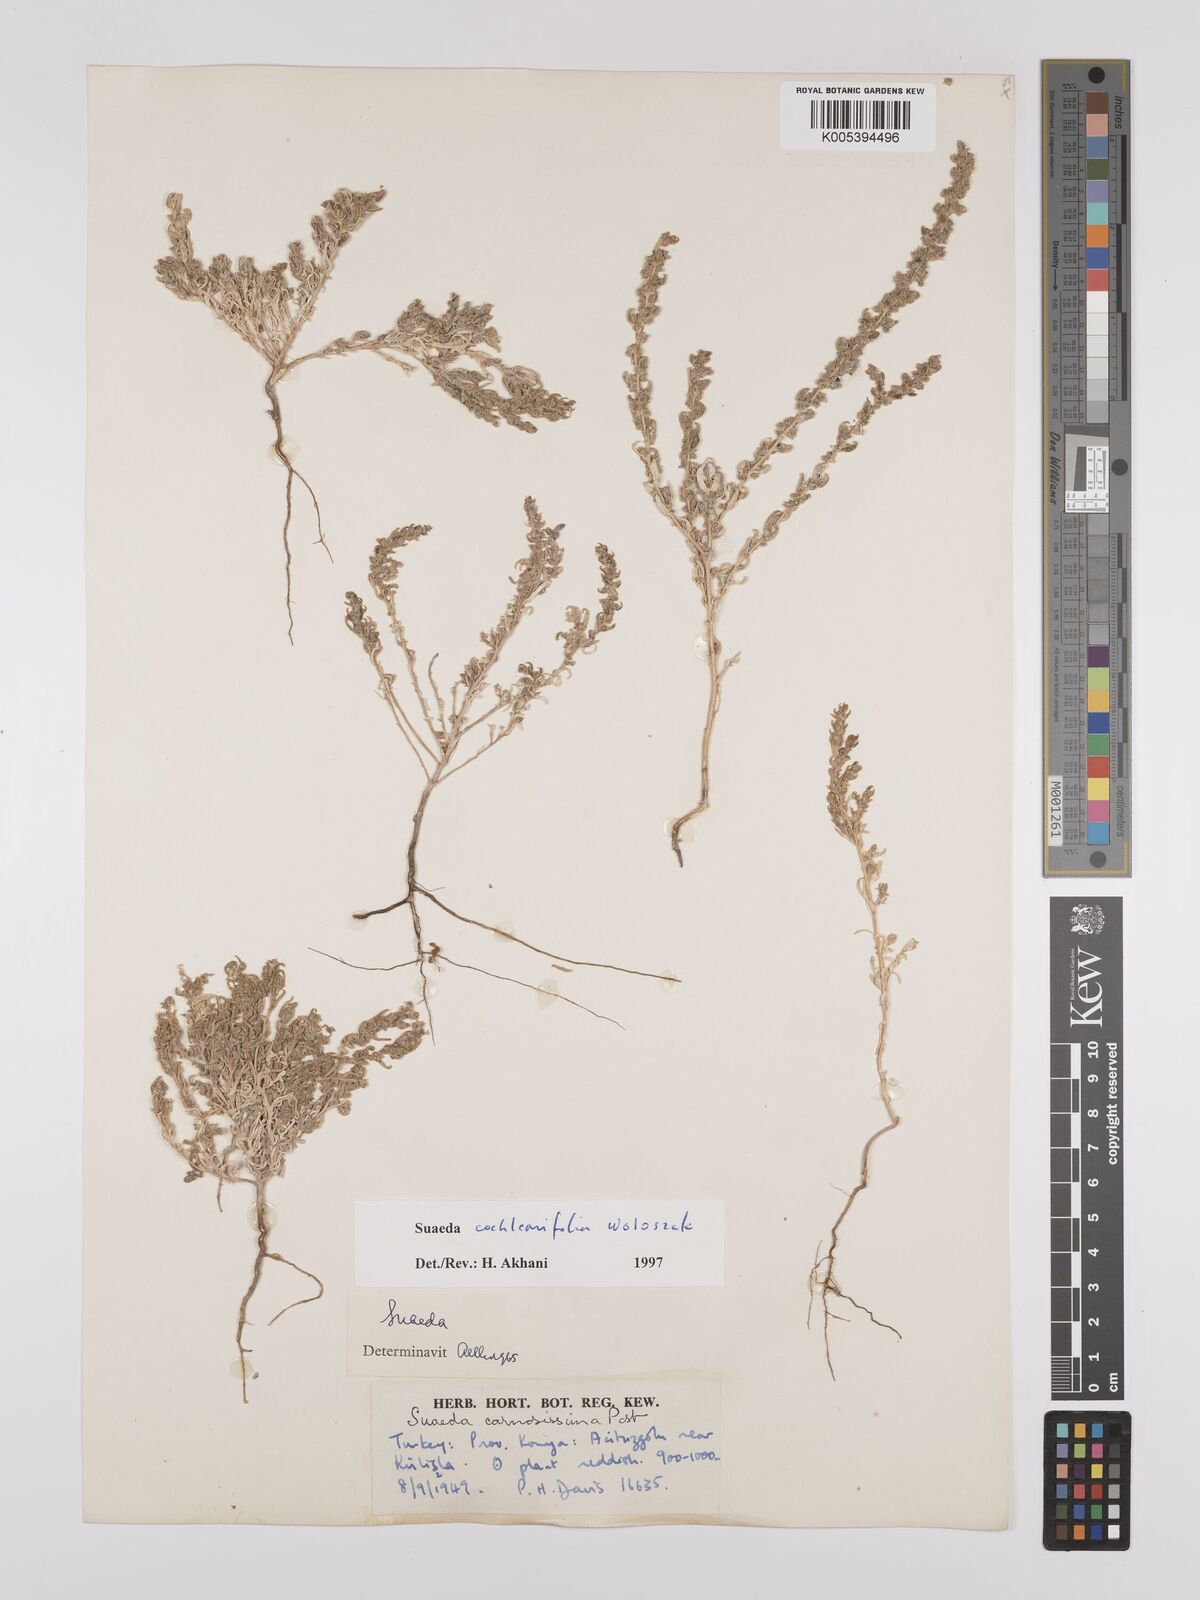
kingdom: Plantae
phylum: Tracheophyta
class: Magnoliopsida
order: Caryophyllales
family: Amaranthaceae
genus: Suaeda
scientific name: Suaeda carnosissima
